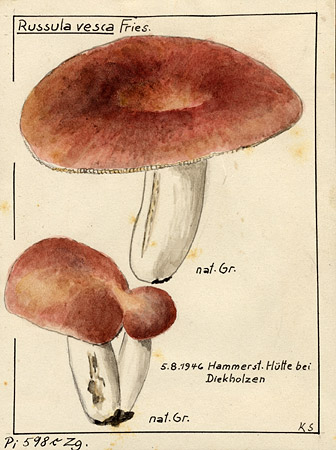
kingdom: Fungi
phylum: Basidiomycota
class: Agaricomycetes
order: Russulales
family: Russulaceae
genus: Russula
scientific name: Russula vesca
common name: Bare-toothed russula
